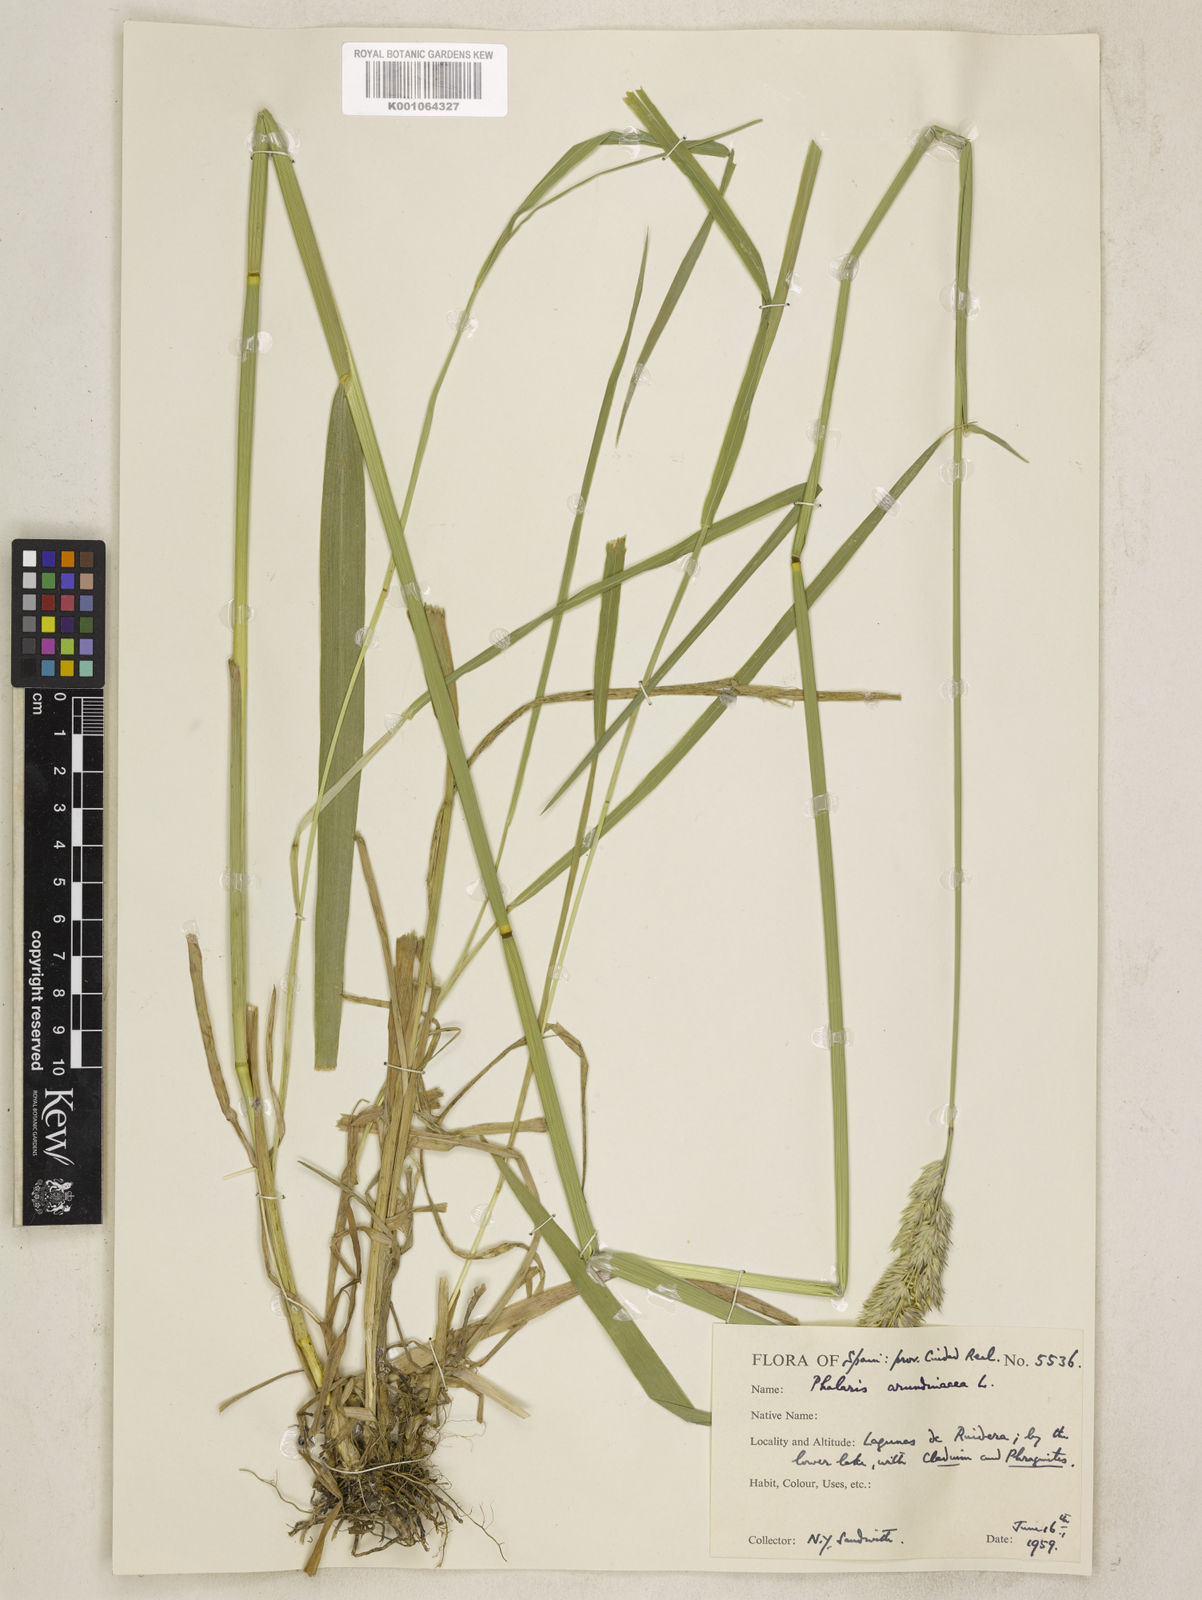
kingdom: Plantae
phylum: Tracheophyta
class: Liliopsida
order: Poales
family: Poaceae
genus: Phalaris
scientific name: Phalaris arundinacea
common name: Reed canary-grass
